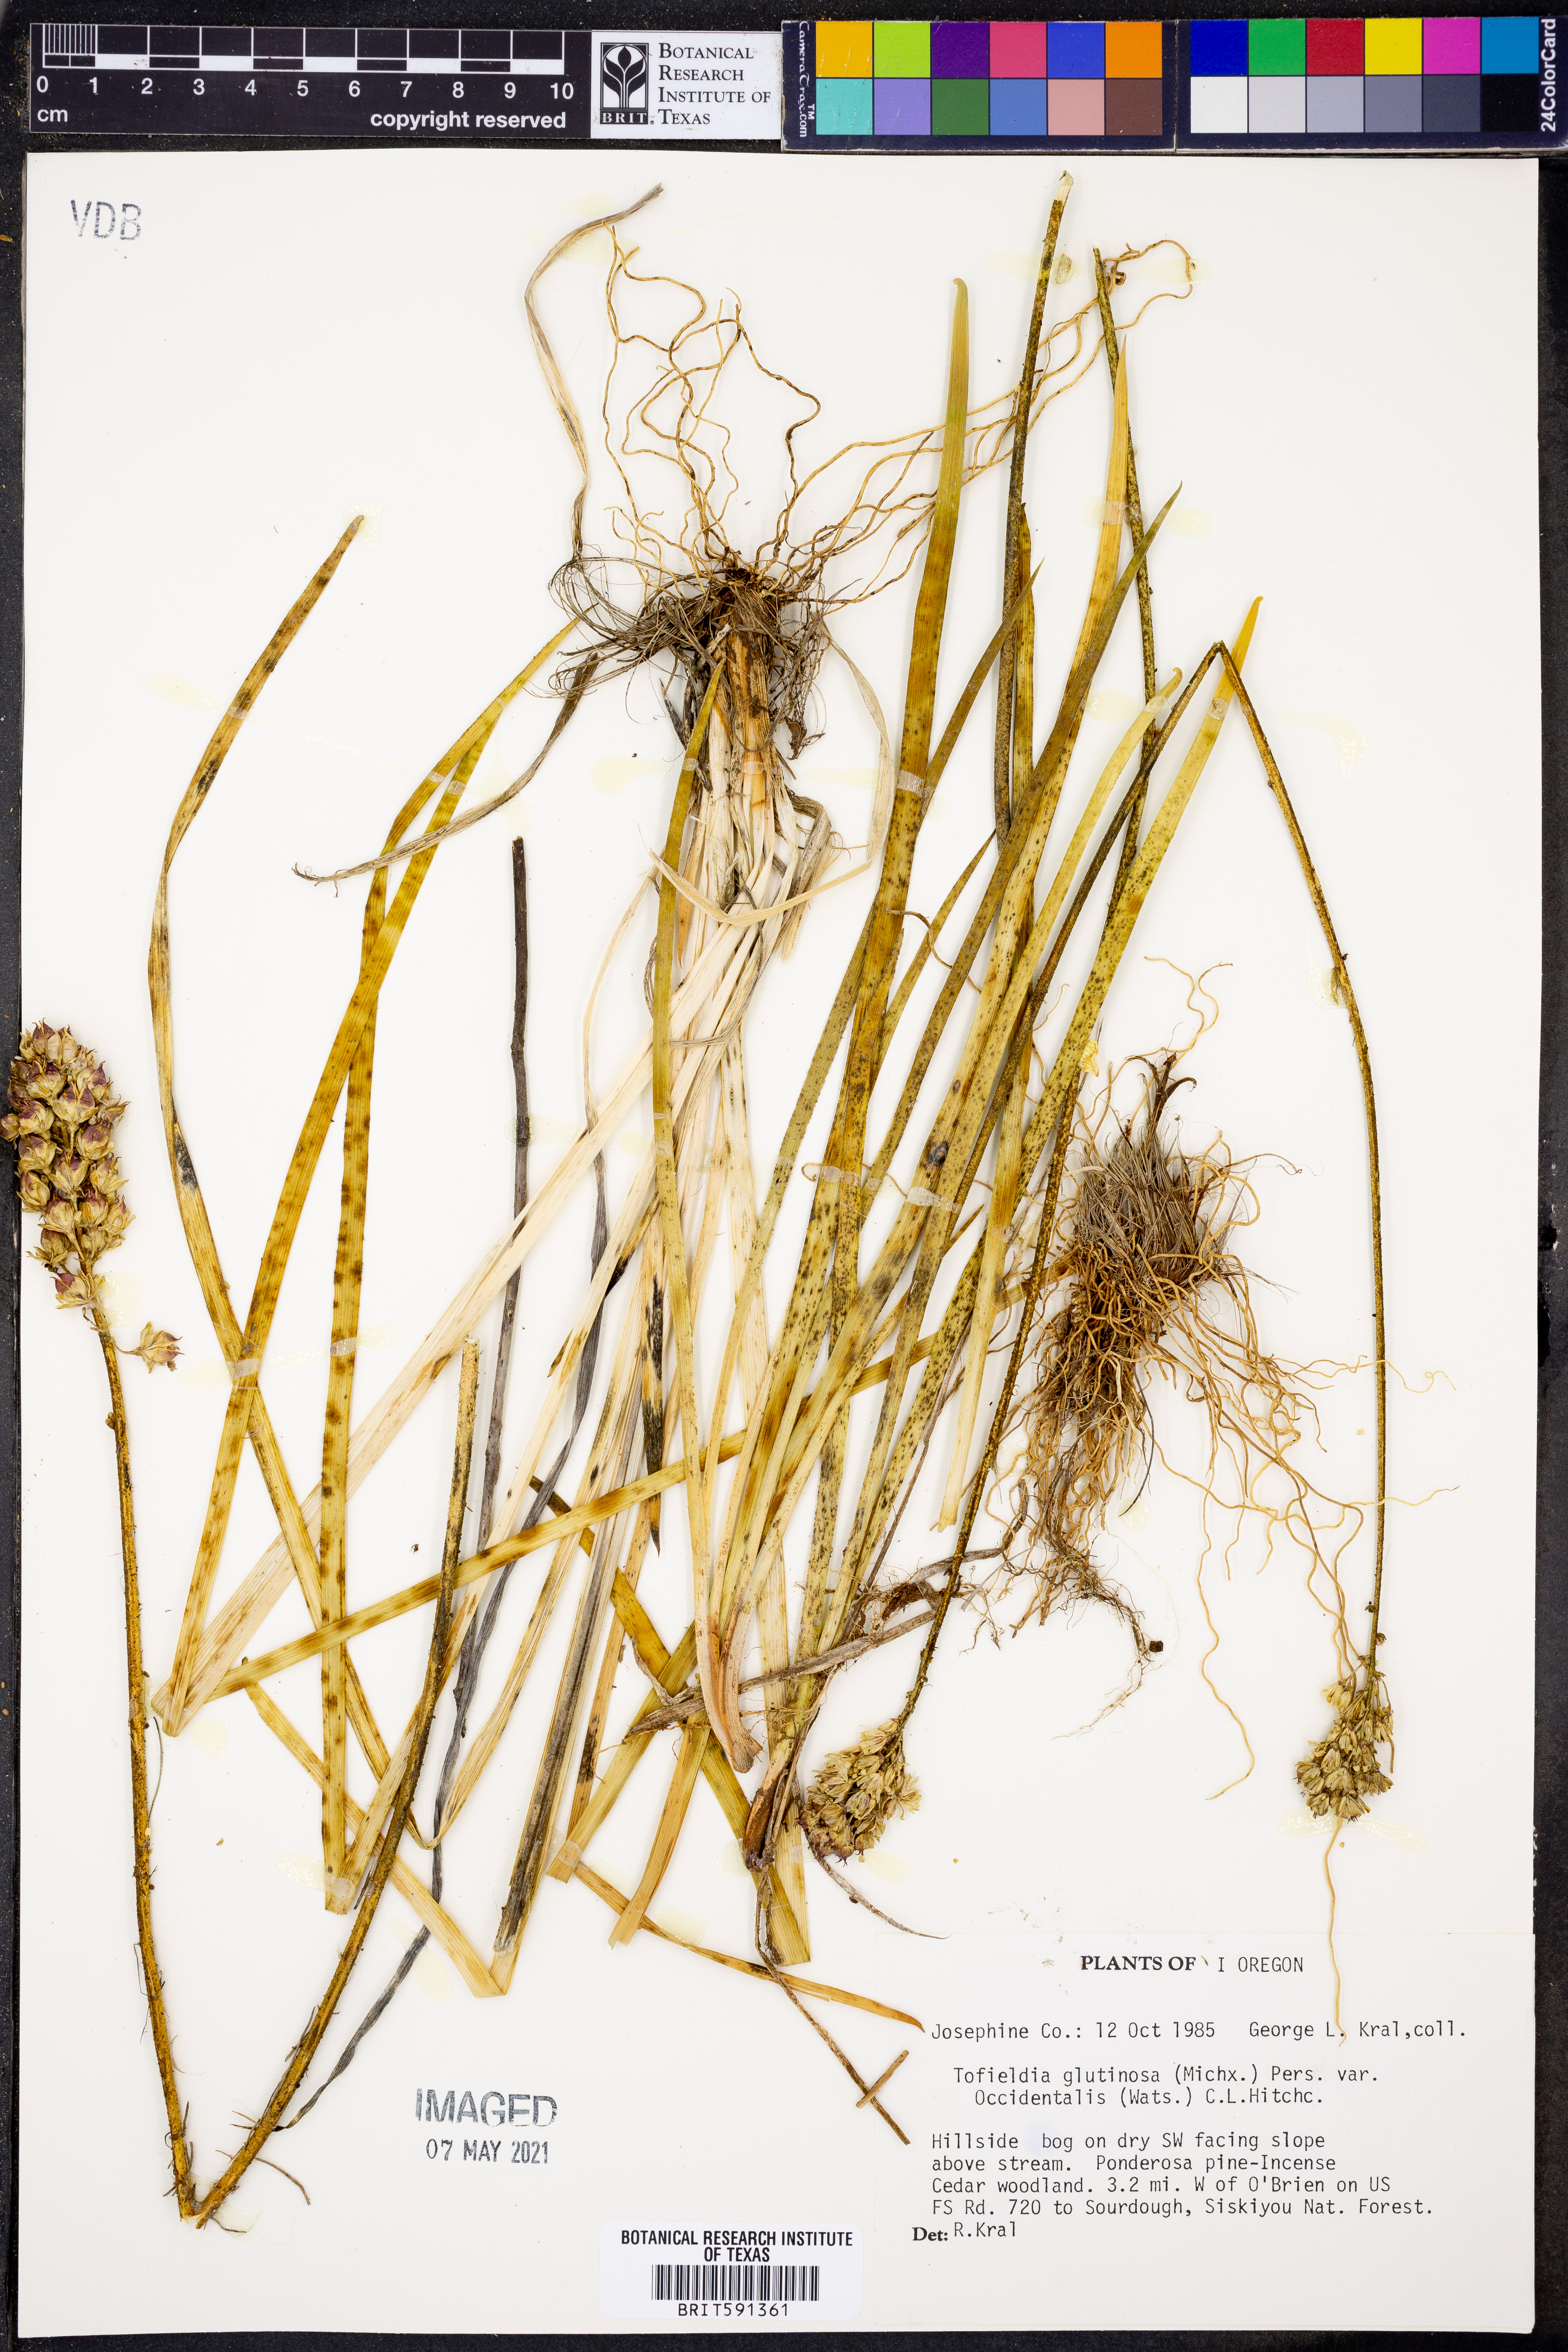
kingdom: Plantae
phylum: Tracheophyta
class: Liliopsida
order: Alismatales
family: Tofieldiaceae
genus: Triantha
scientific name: Triantha occidentalis
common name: Western false asphodel
